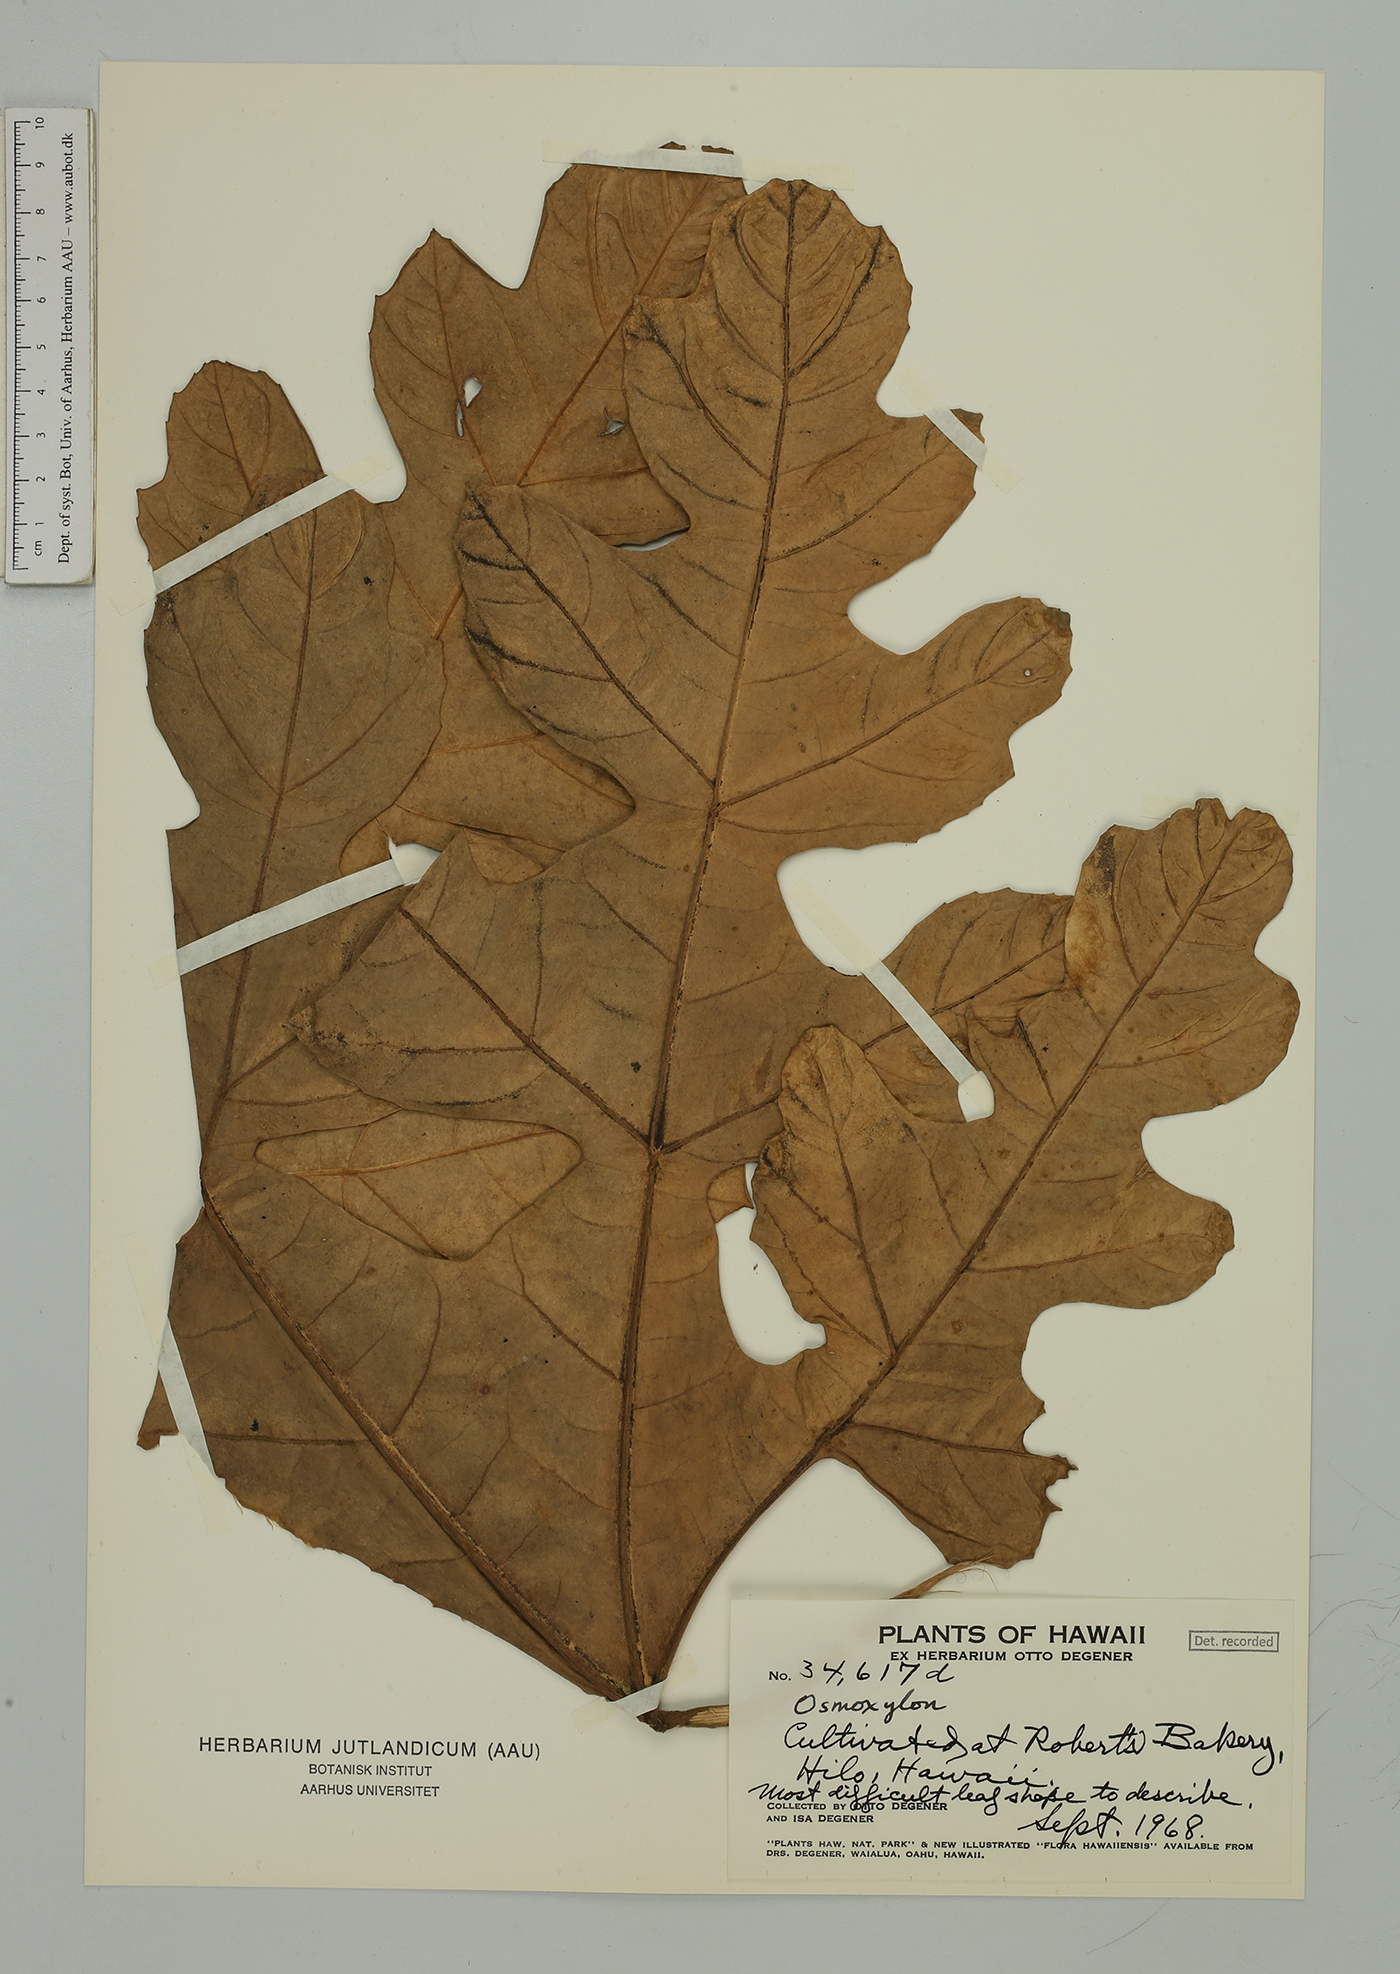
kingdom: Plantae
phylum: Tracheophyta
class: Magnoliopsida
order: Apiales
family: Araliaceae
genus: Osmoxylon
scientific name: Osmoxylon
